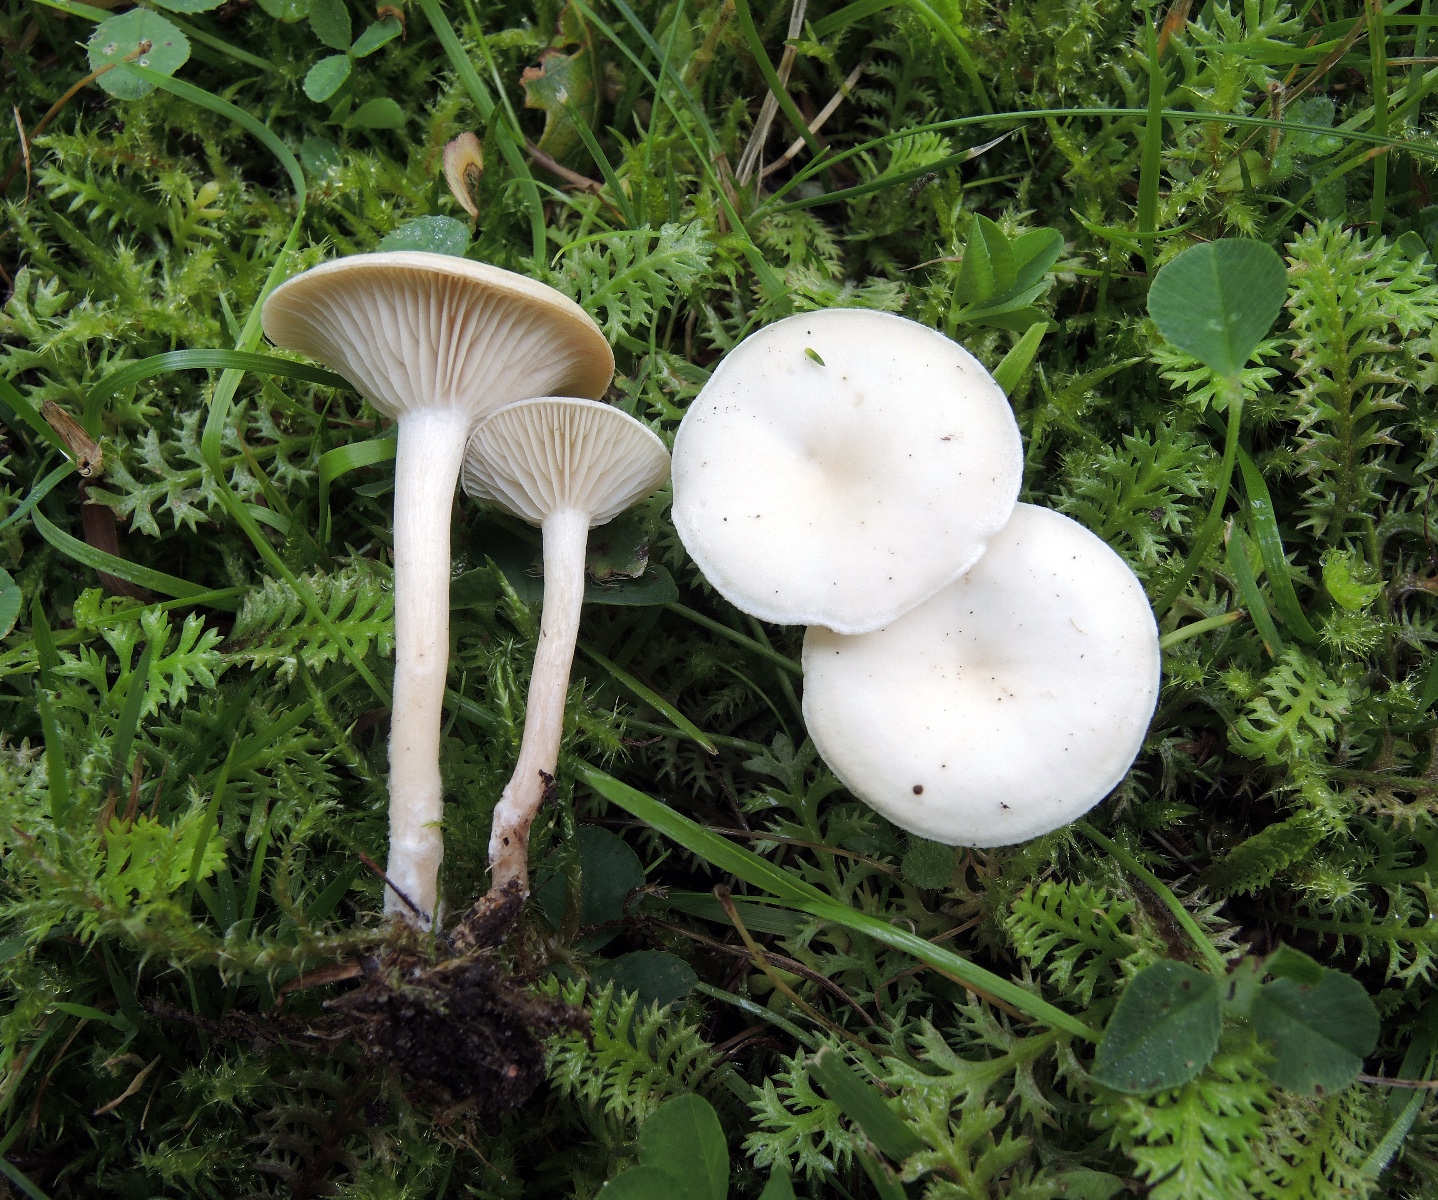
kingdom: Fungi
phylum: Basidiomycota
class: Agaricomycetes
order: Agaricales
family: Tricholomataceae
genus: Clitocybe
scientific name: Clitocybe rivulosa
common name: eng-tragthat
